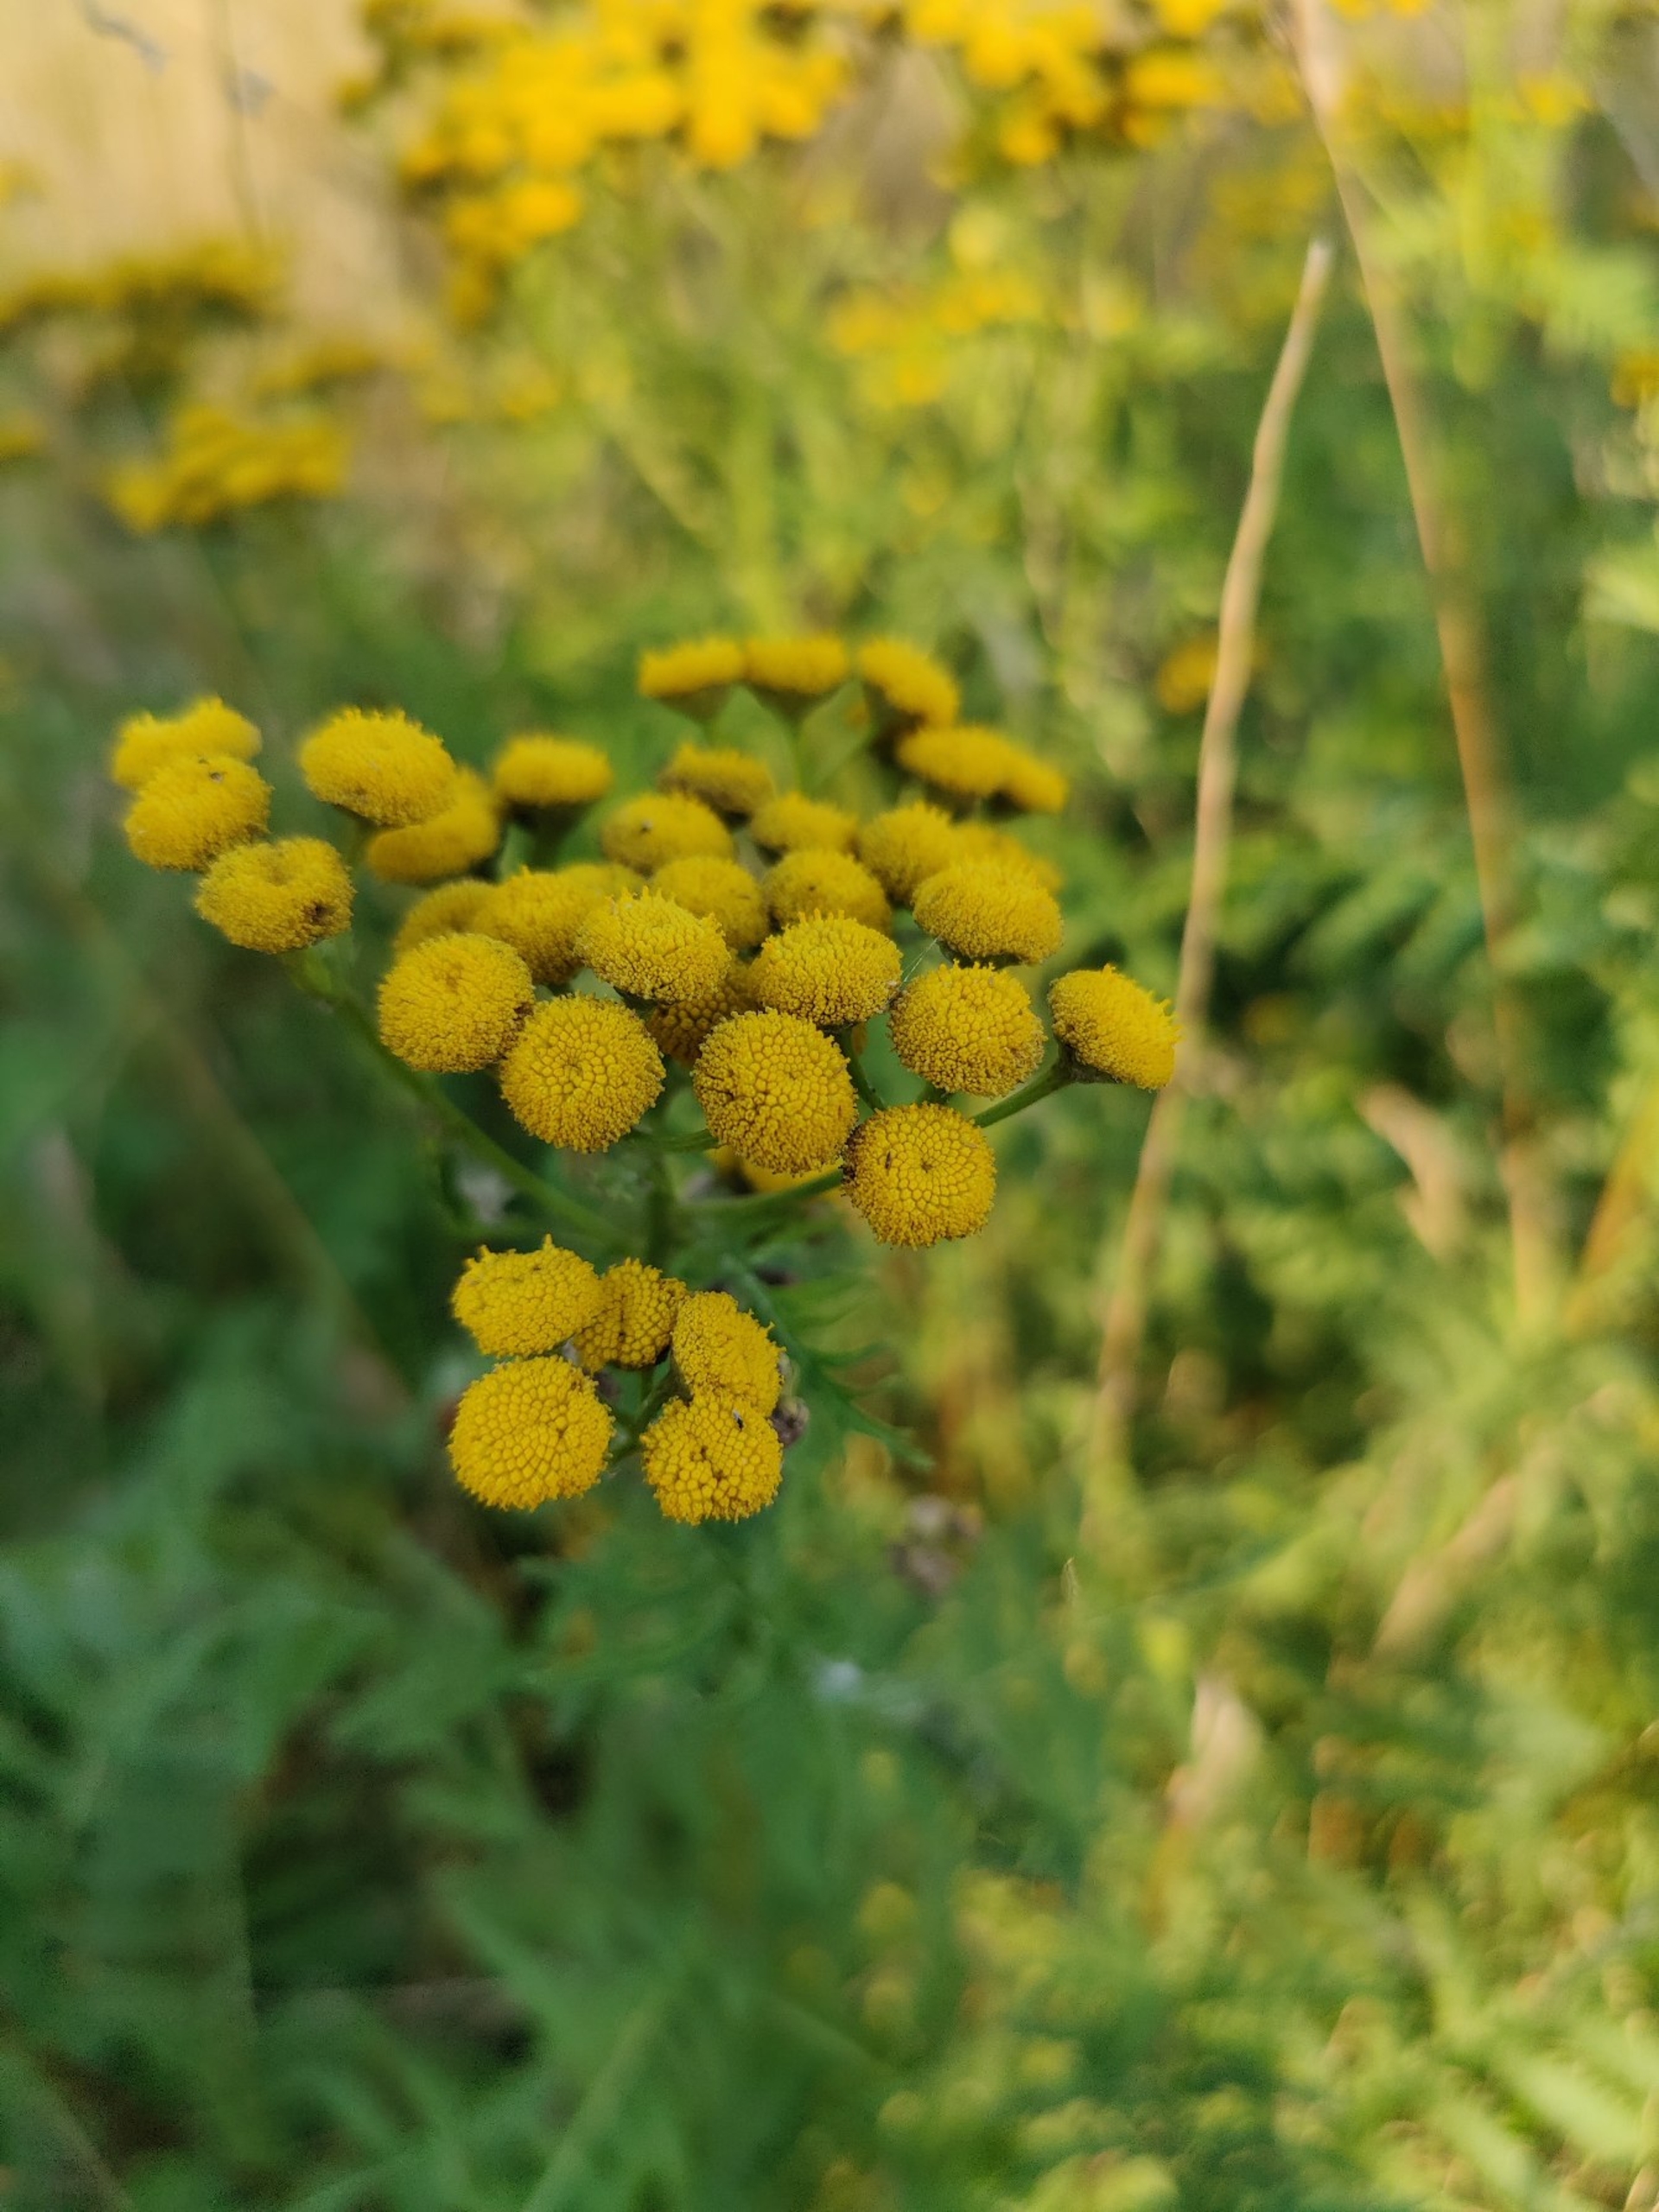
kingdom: Plantae
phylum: Tracheophyta
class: Magnoliopsida
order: Asterales
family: Asteraceae
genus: Tanacetum
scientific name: Tanacetum vulgare
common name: Rejnfan
